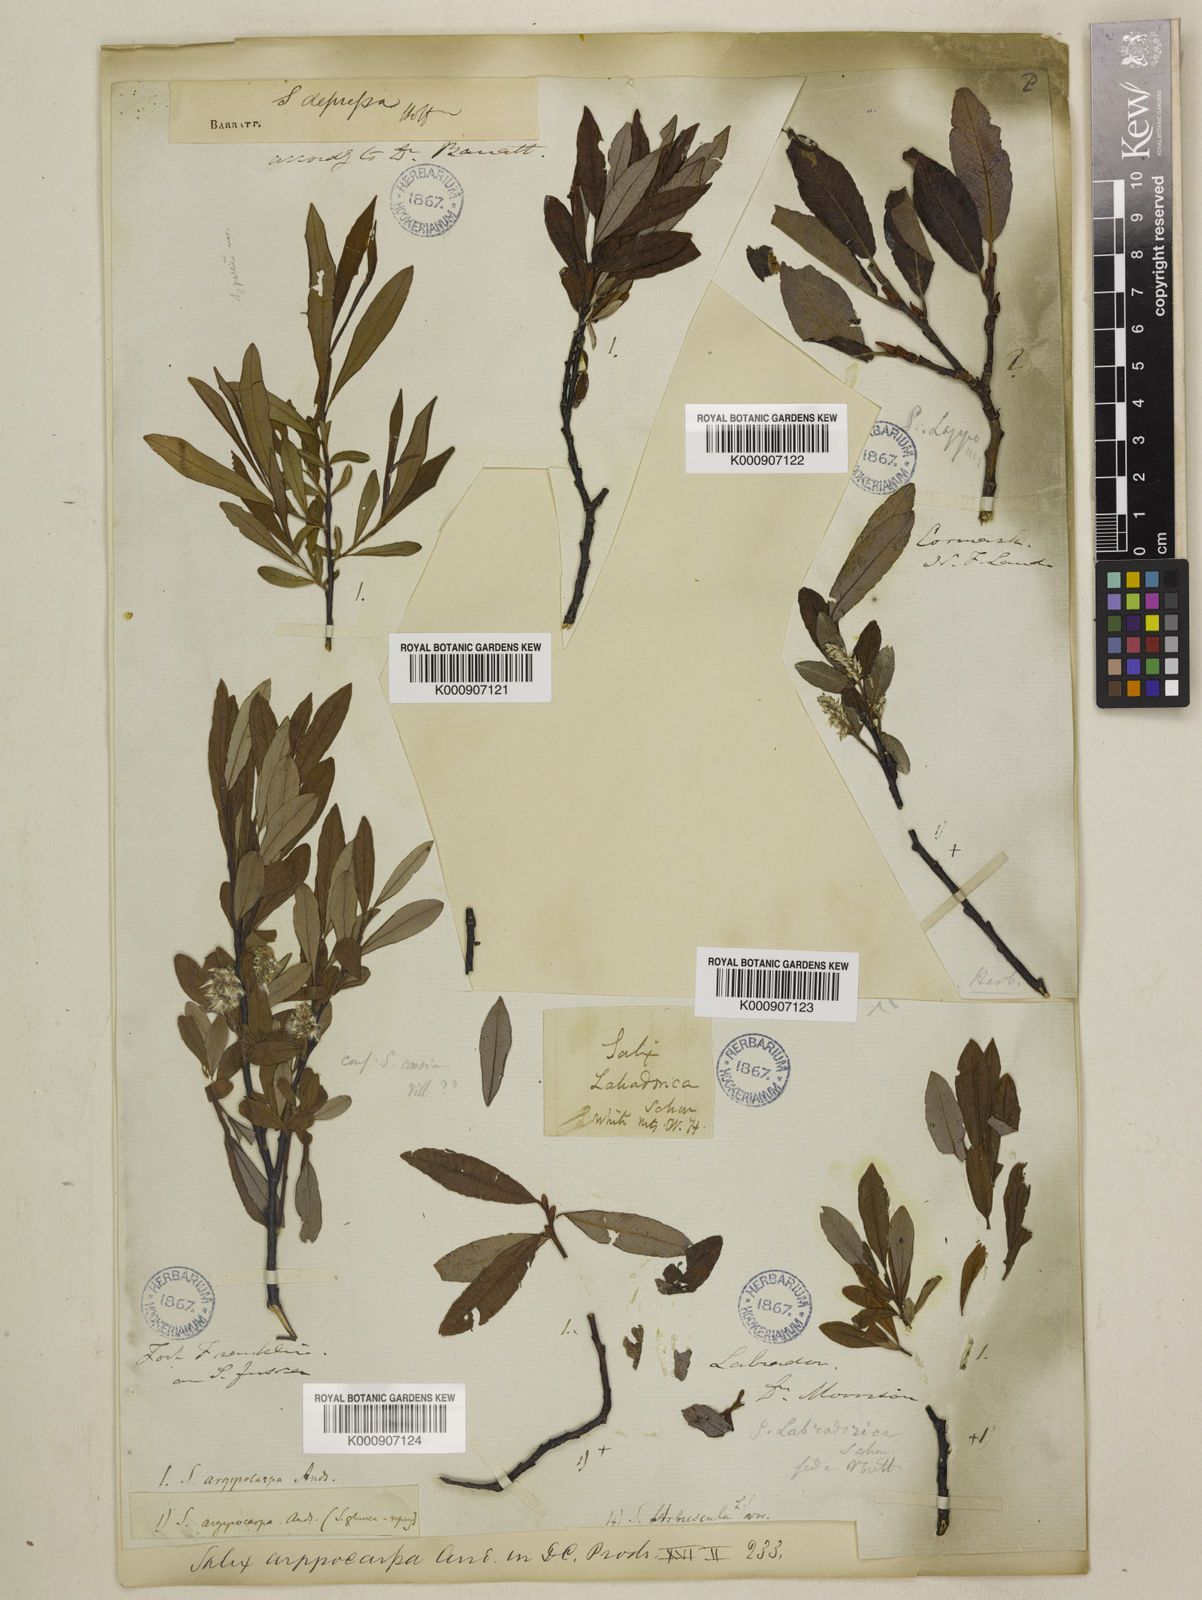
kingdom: Plantae
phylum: Tracheophyta
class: Magnoliopsida
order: Malpighiales
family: Salicaceae
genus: Salix
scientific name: Salix argyrocarpa
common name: Labrador willow
